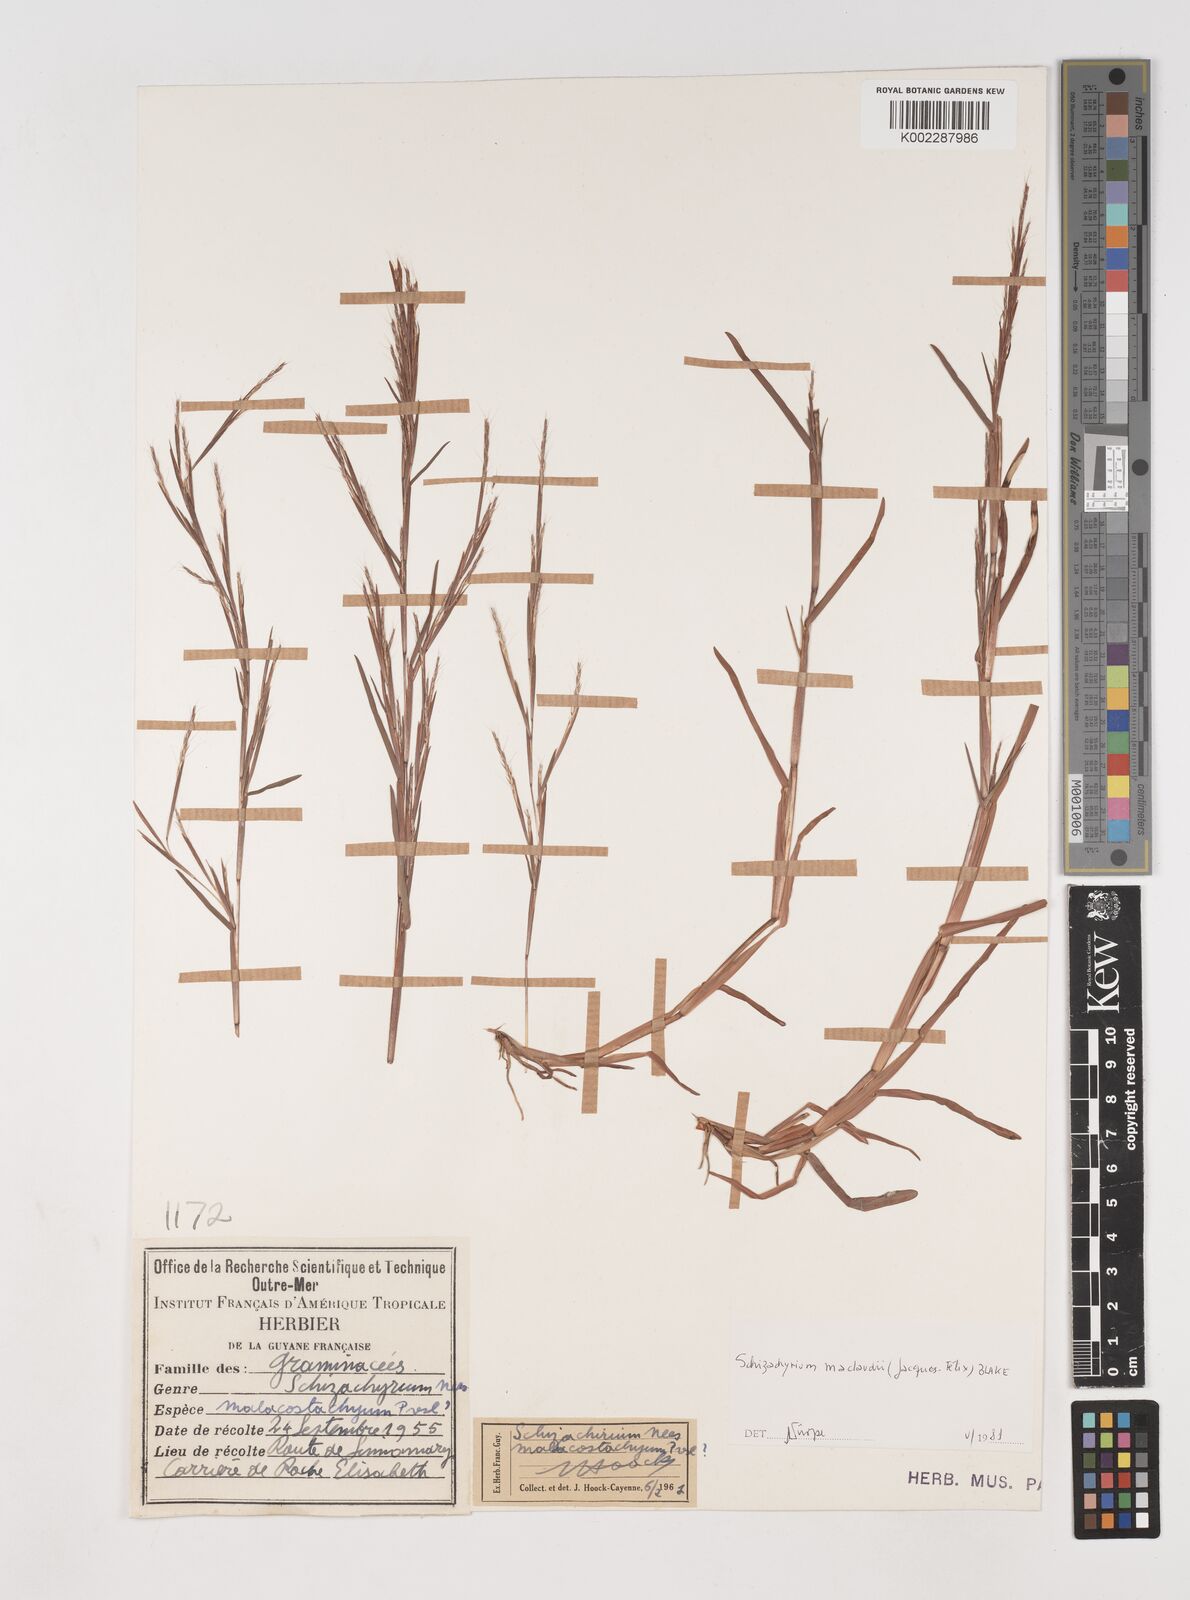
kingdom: Plantae
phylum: Tracheophyta
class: Liliopsida
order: Poales
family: Poaceae
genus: Schizachyrium
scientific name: Schizachyrium maclaudii
